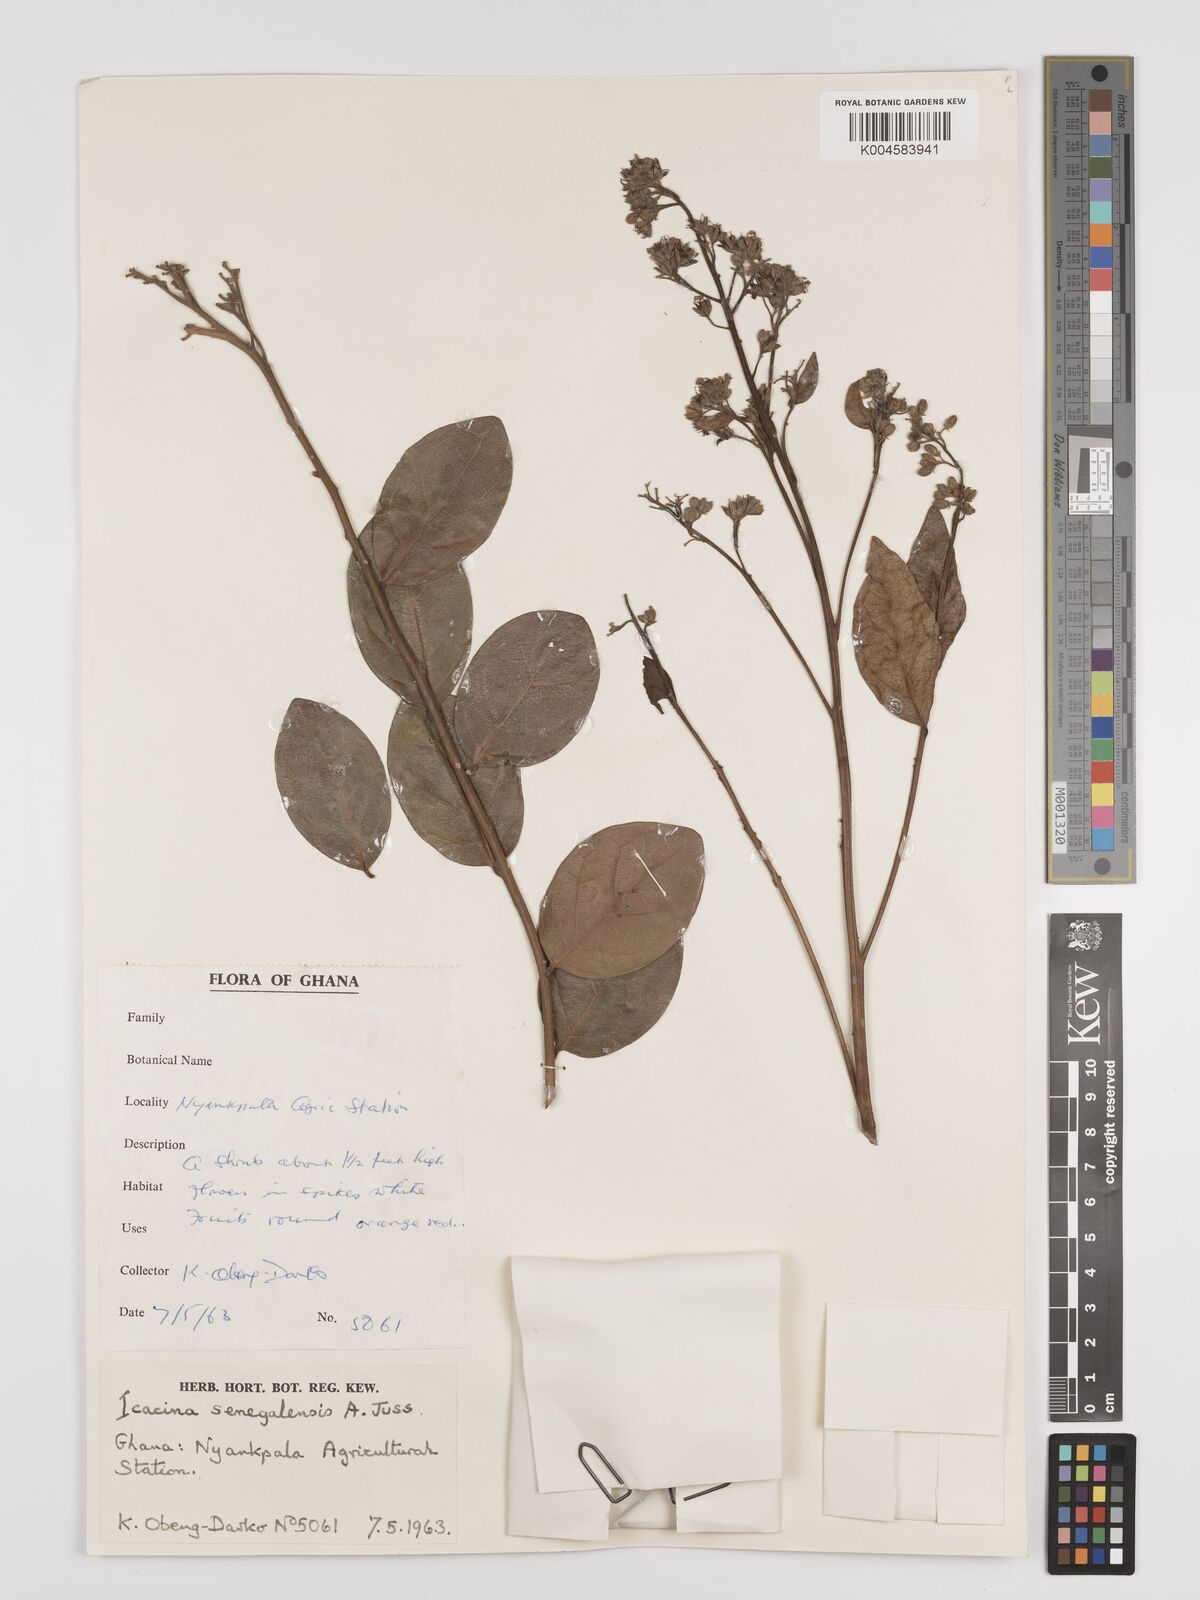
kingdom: Plantae
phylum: Tracheophyta
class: Magnoliopsida
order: Icacinales
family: Icacinaceae
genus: Icacina
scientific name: Icacina oliviformis
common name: False yam
